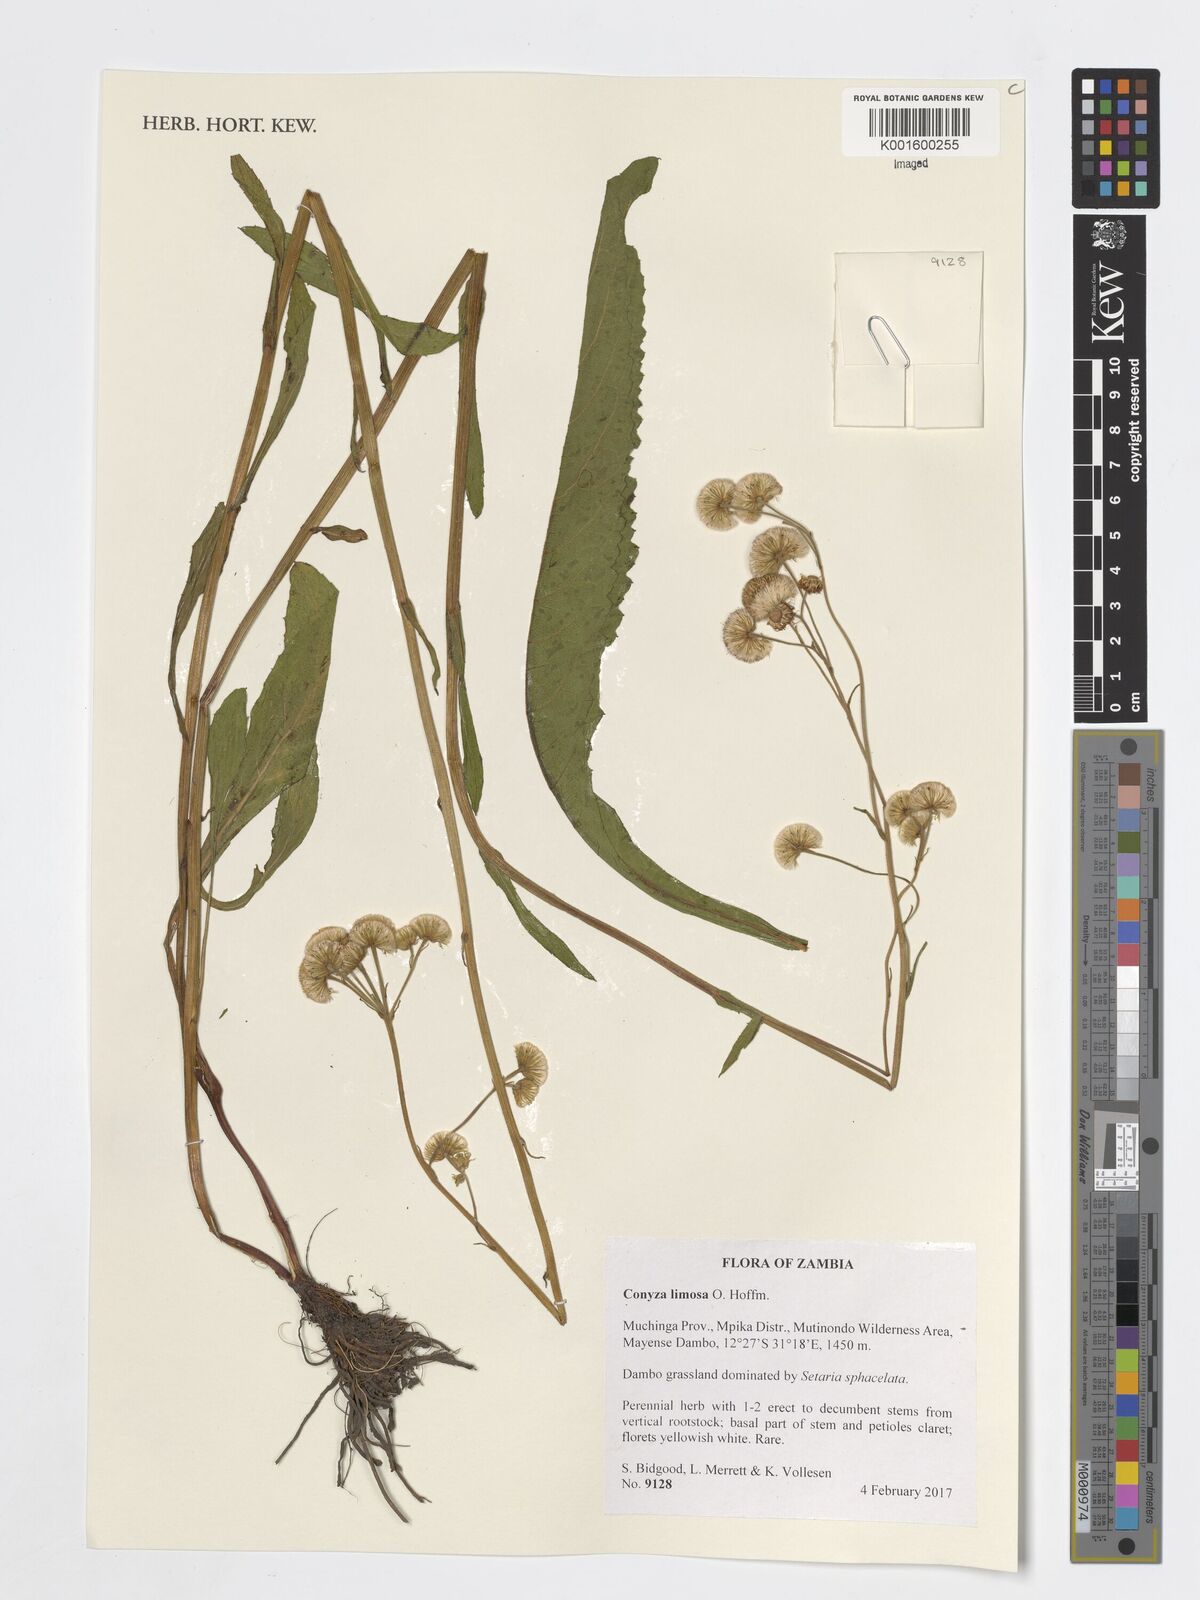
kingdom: Plantae
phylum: Tracheophyta
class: Magnoliopsida
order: Asterales
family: Asteraceae
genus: Conyza
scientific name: Conyza limosa
